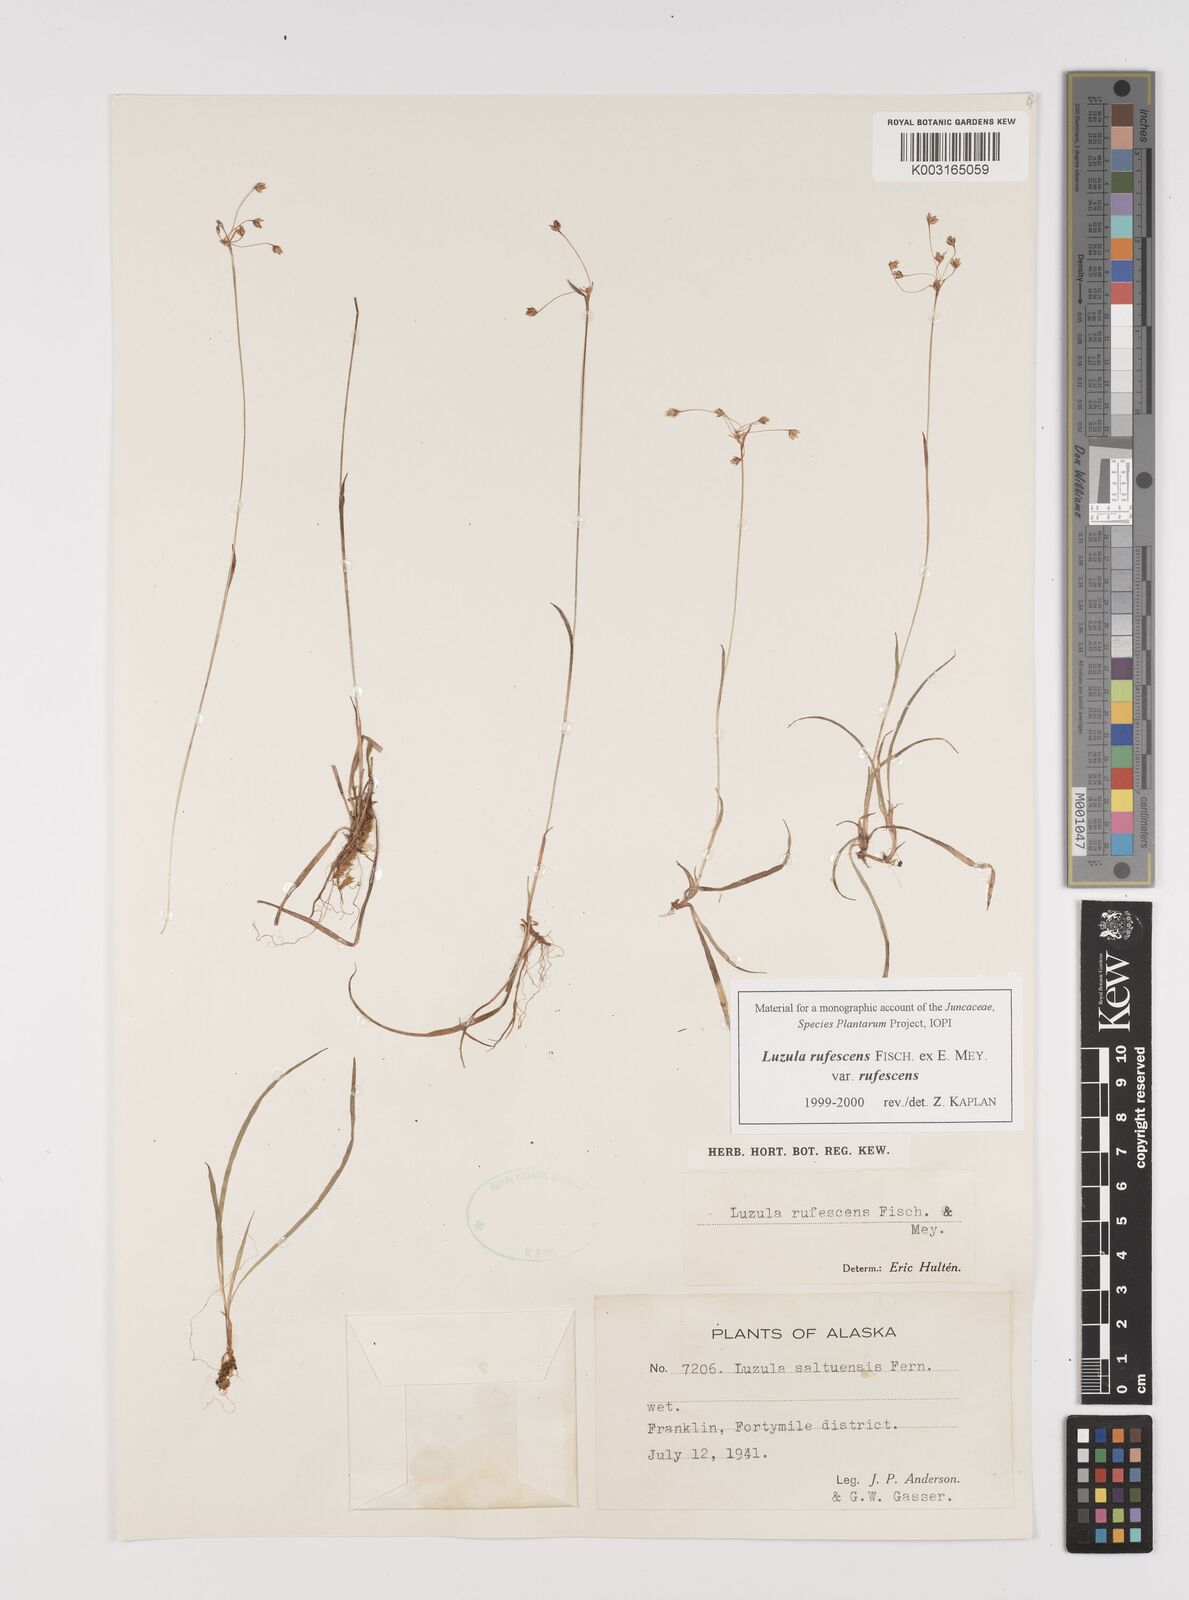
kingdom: Plantae
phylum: Tracheophyta
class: Liliopsida
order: Poales
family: Juncaceae
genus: Luzula
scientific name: Luzula rufescens
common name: Reddish woodrush
